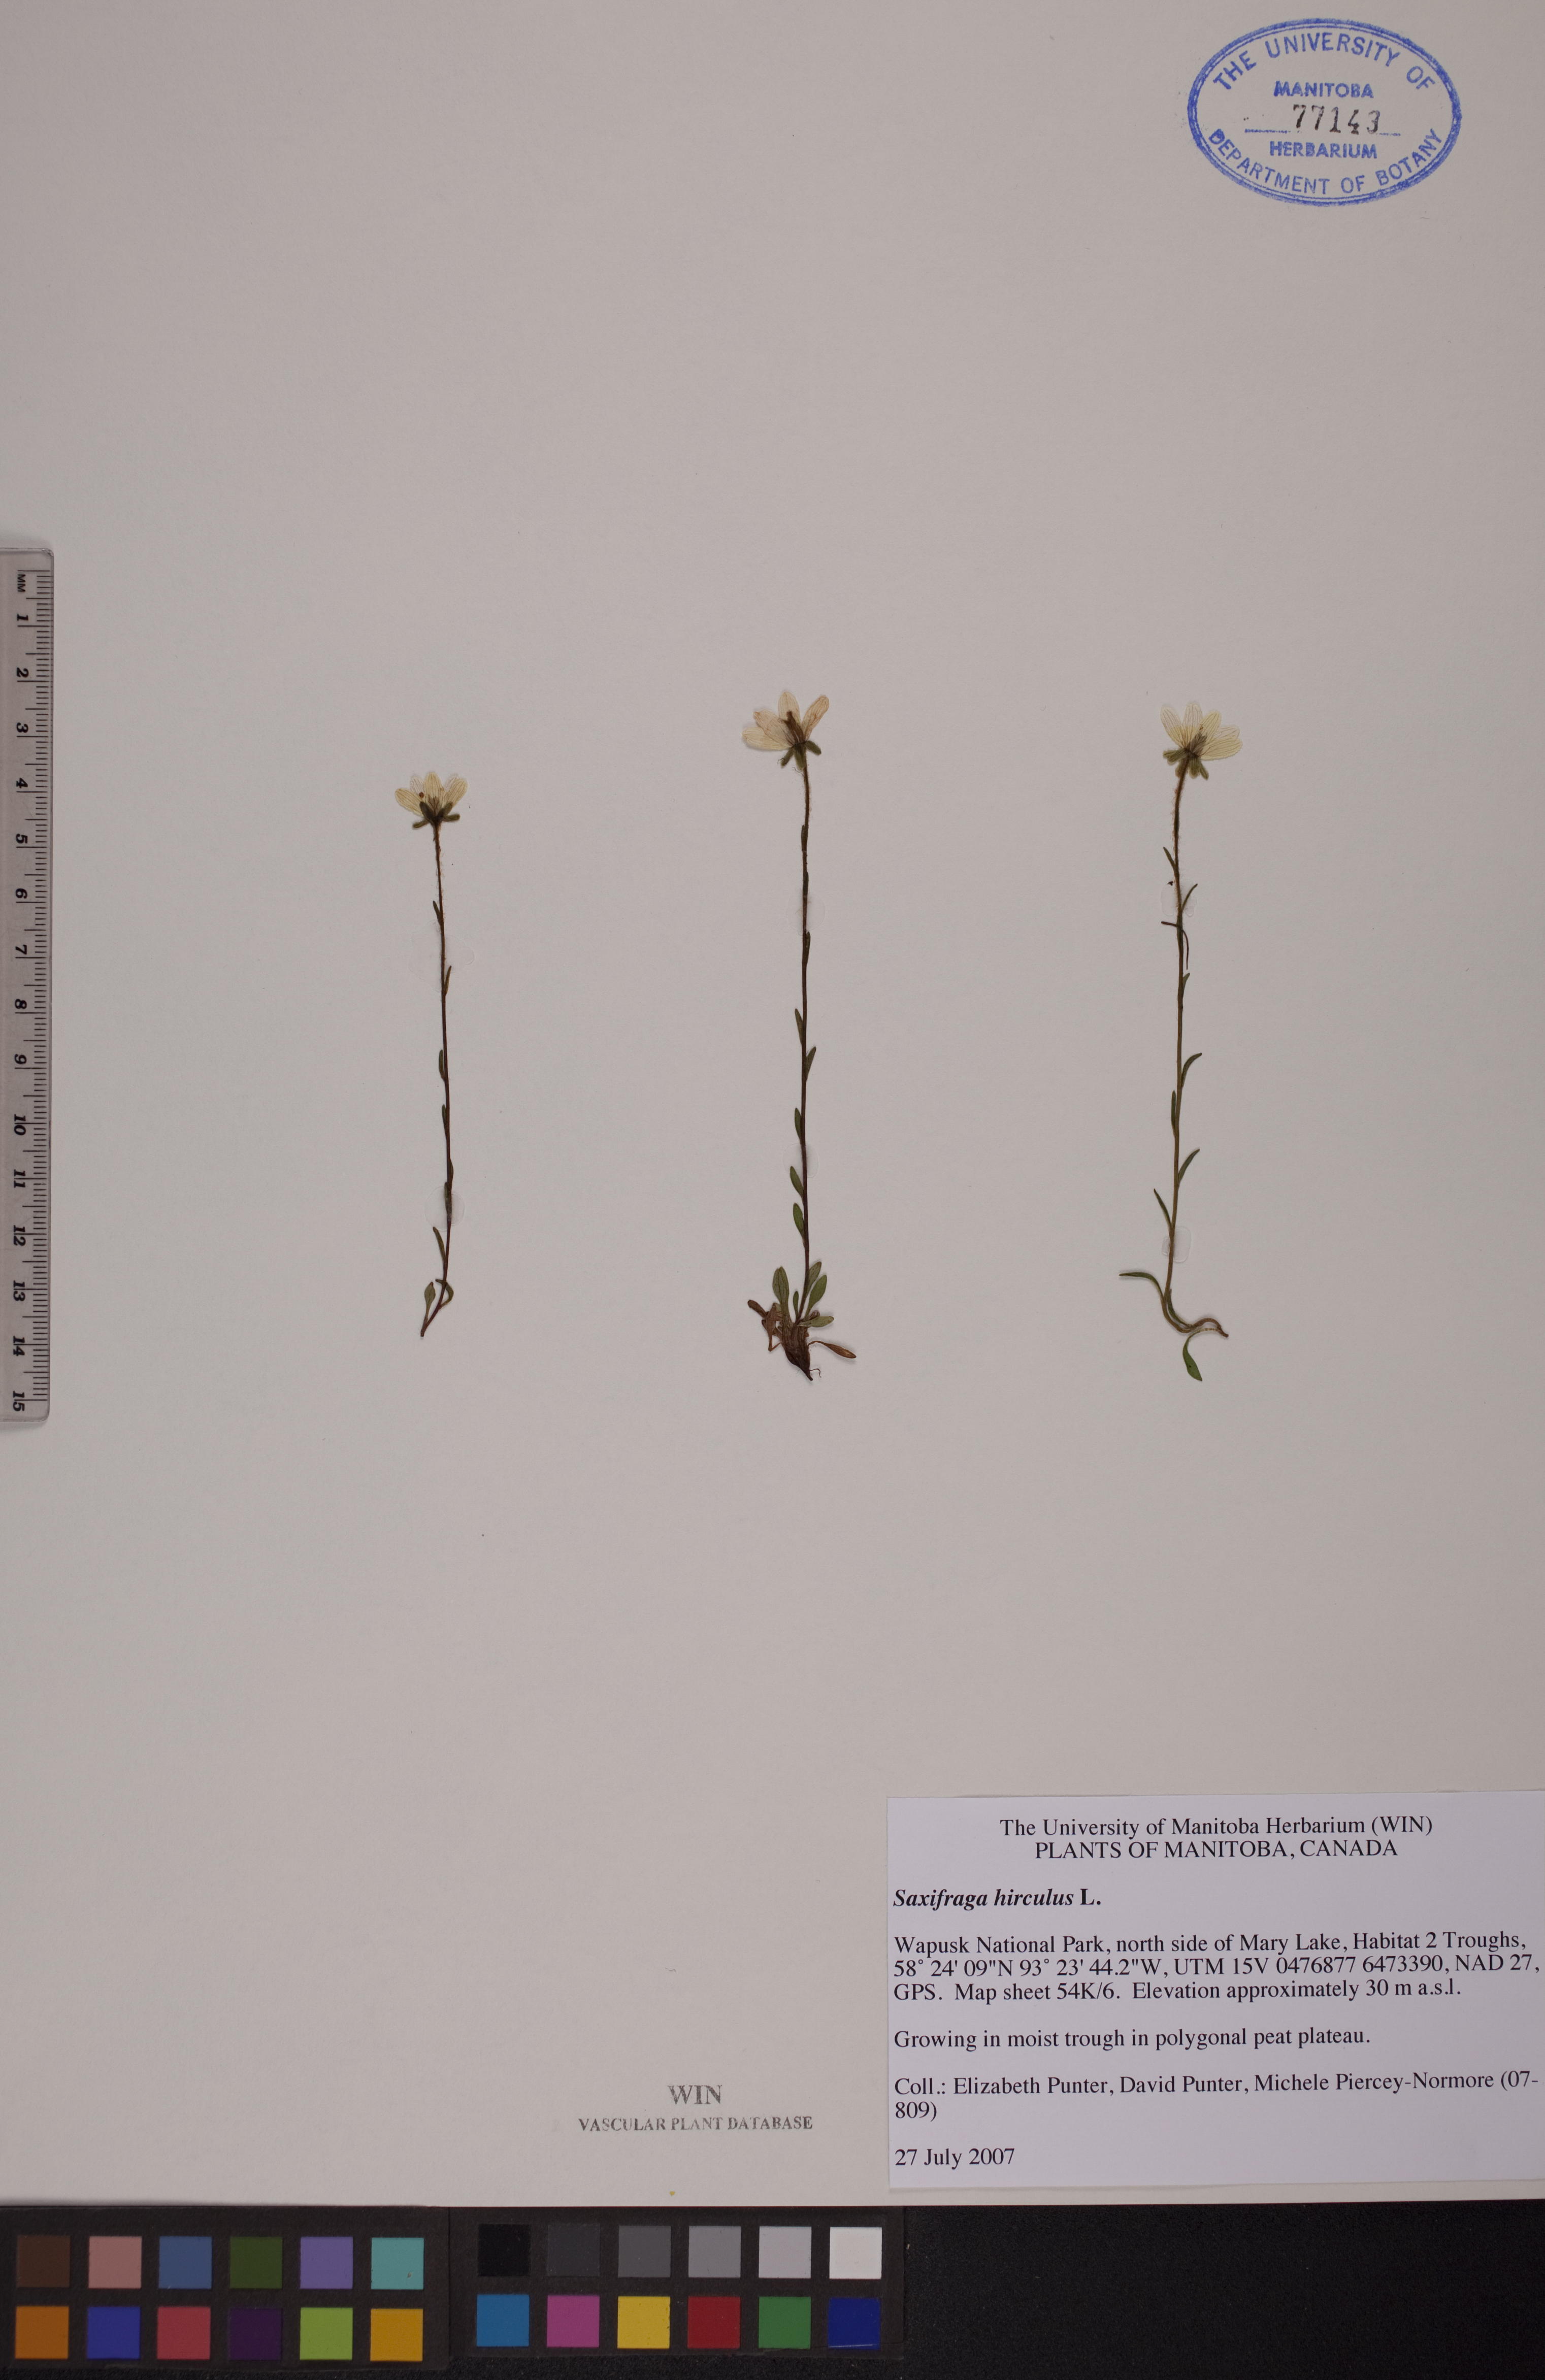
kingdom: Plantae
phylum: Tracheophyta
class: Magnoliopsida
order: Saxifragales
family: Saxifragaceae
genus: Saxifraga
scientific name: Saxifraga hirculus
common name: Yellow marsh saxifrage
